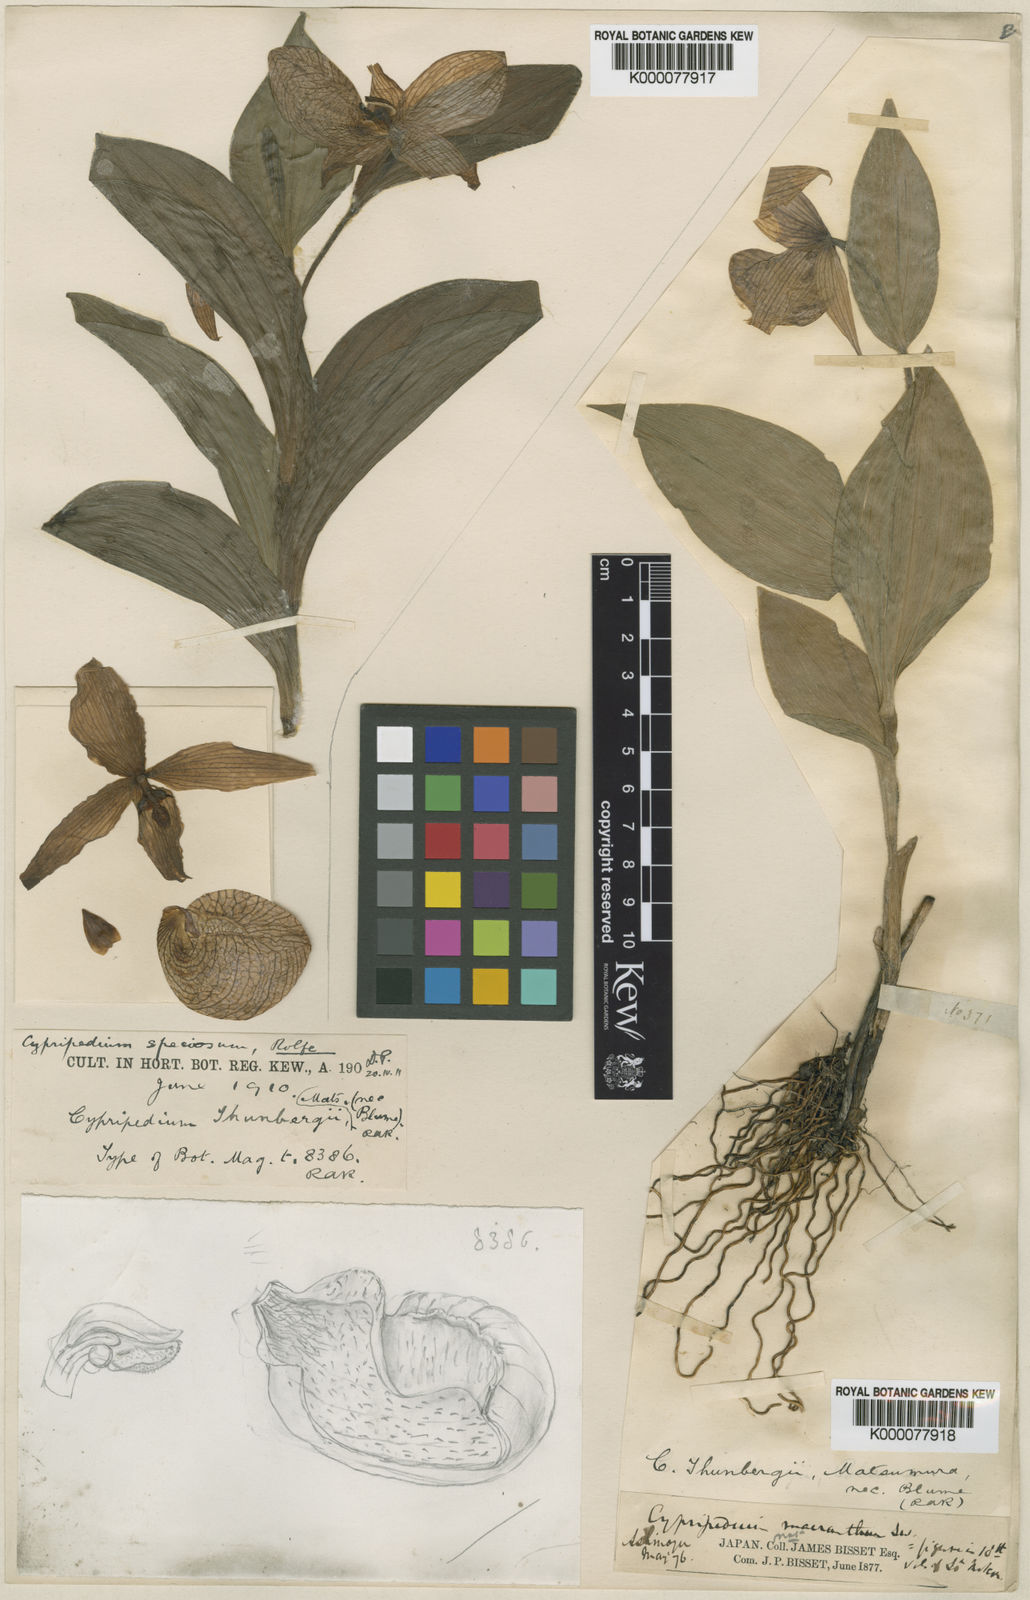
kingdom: Plantae
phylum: Tracheophyta
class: Liliopsida
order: Asparagales
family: Orchidaceae
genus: Cypripedium
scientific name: Cypripedium macranthos
